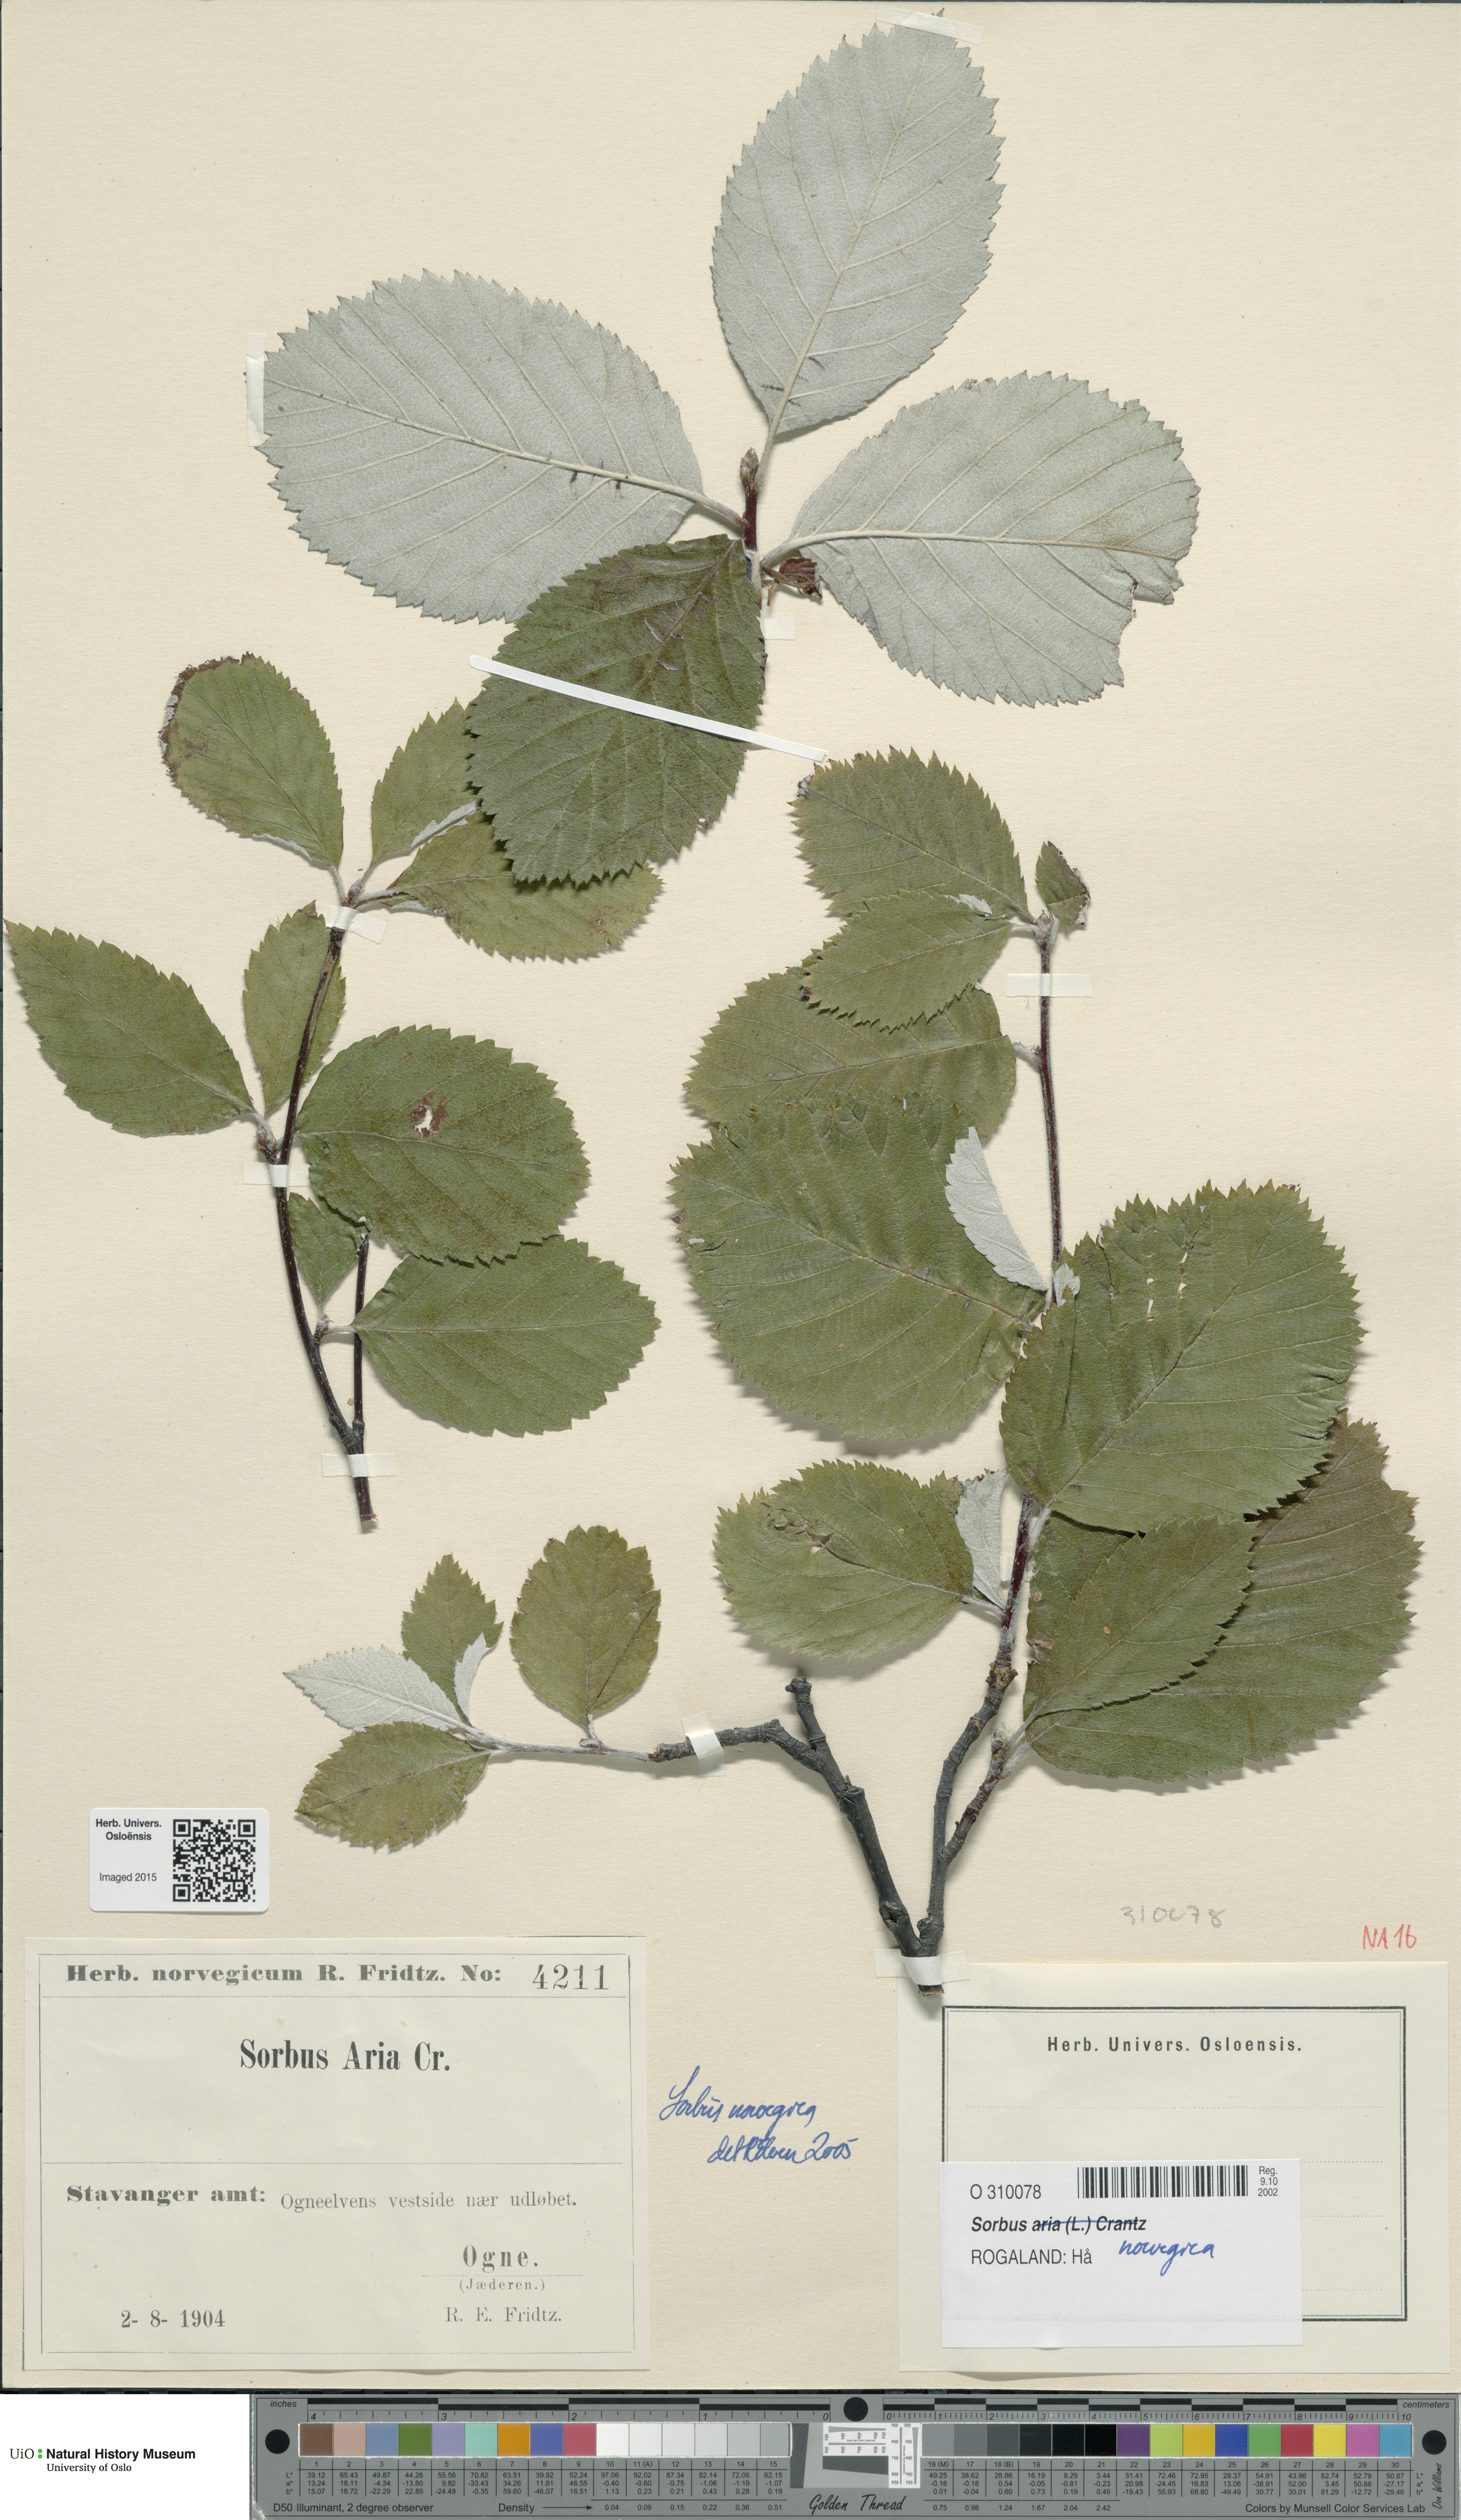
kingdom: Plantae
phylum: Tracheophyta
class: Magnoliopsida
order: Rosales
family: Rosaceae
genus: Aria
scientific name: Aria obtusifolia
